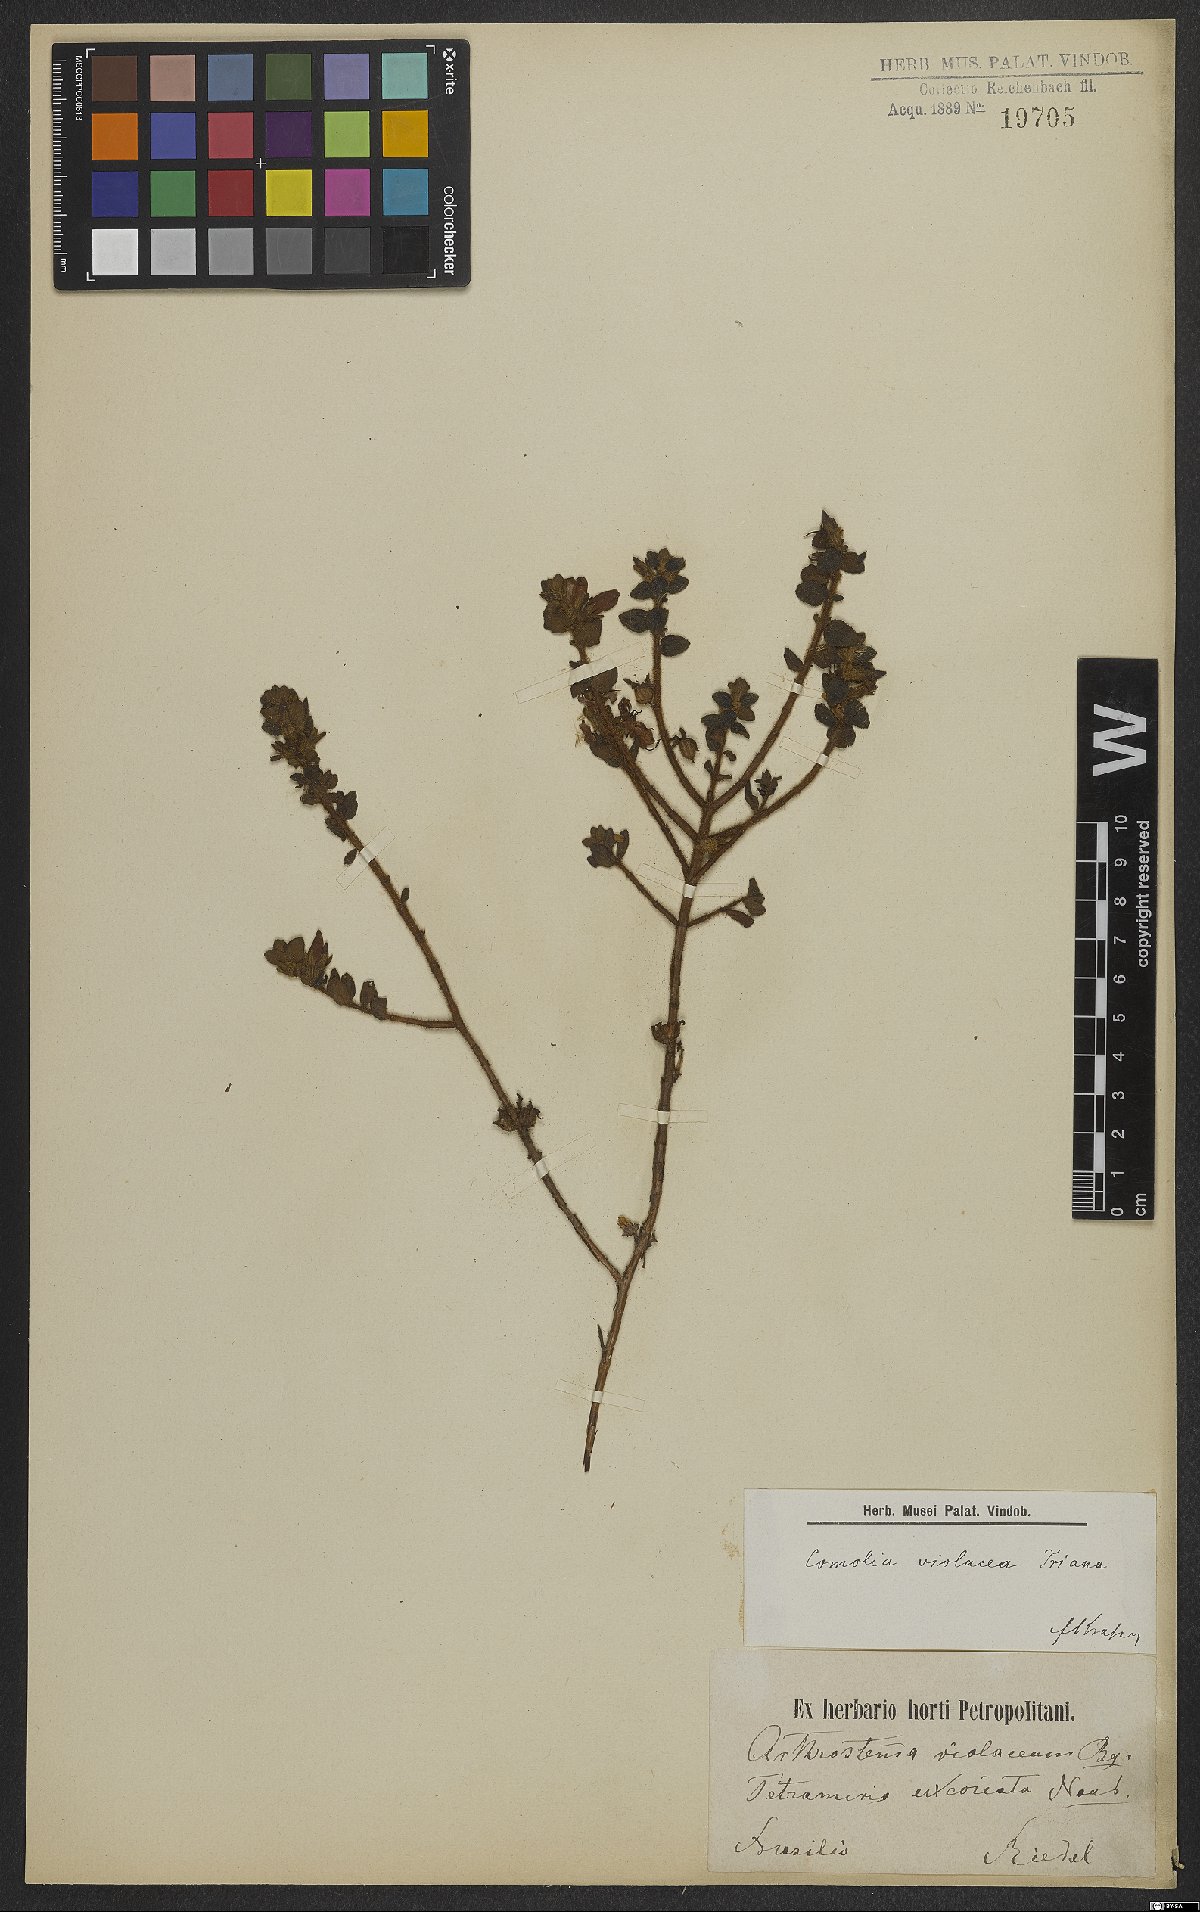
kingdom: Plantae
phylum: Tracheophyta
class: Magnoliopsida
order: Myrtales
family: Melastomataceae
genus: Fritzschia
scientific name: Fritzschia sessilis
